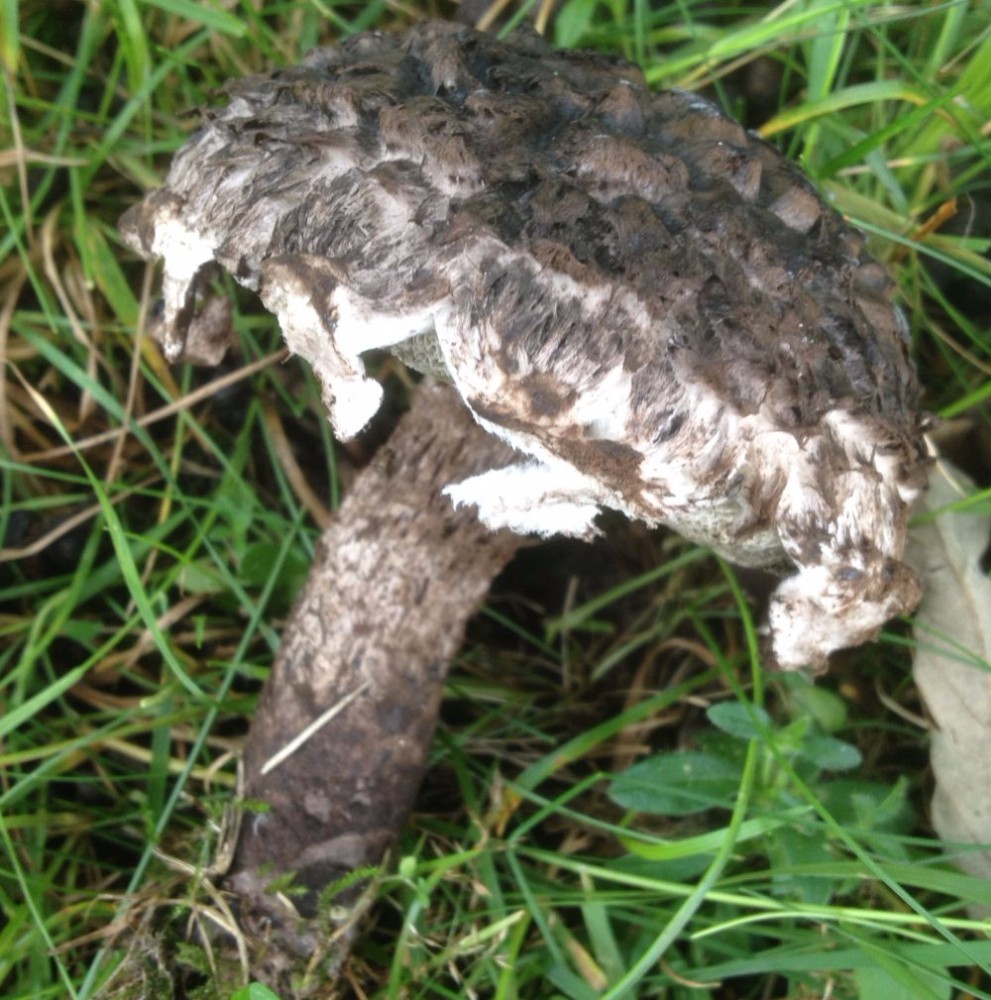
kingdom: Fungi
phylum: Basidiomycota
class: Agaricomycetes
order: Boletales
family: Boletaceae
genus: Strobilomyces
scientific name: Strobilomyces strobilaceus
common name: koglerørhat
